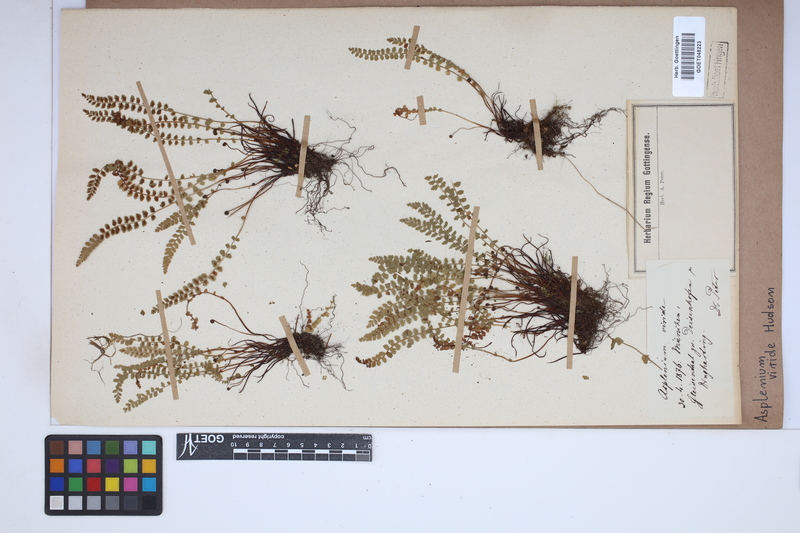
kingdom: Plantae
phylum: Tracheophyta
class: Polypodiopsida
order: Polypodiales
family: Aspleniaceae
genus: Asplenium
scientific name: Asplenium viride
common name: Green spleenwort
